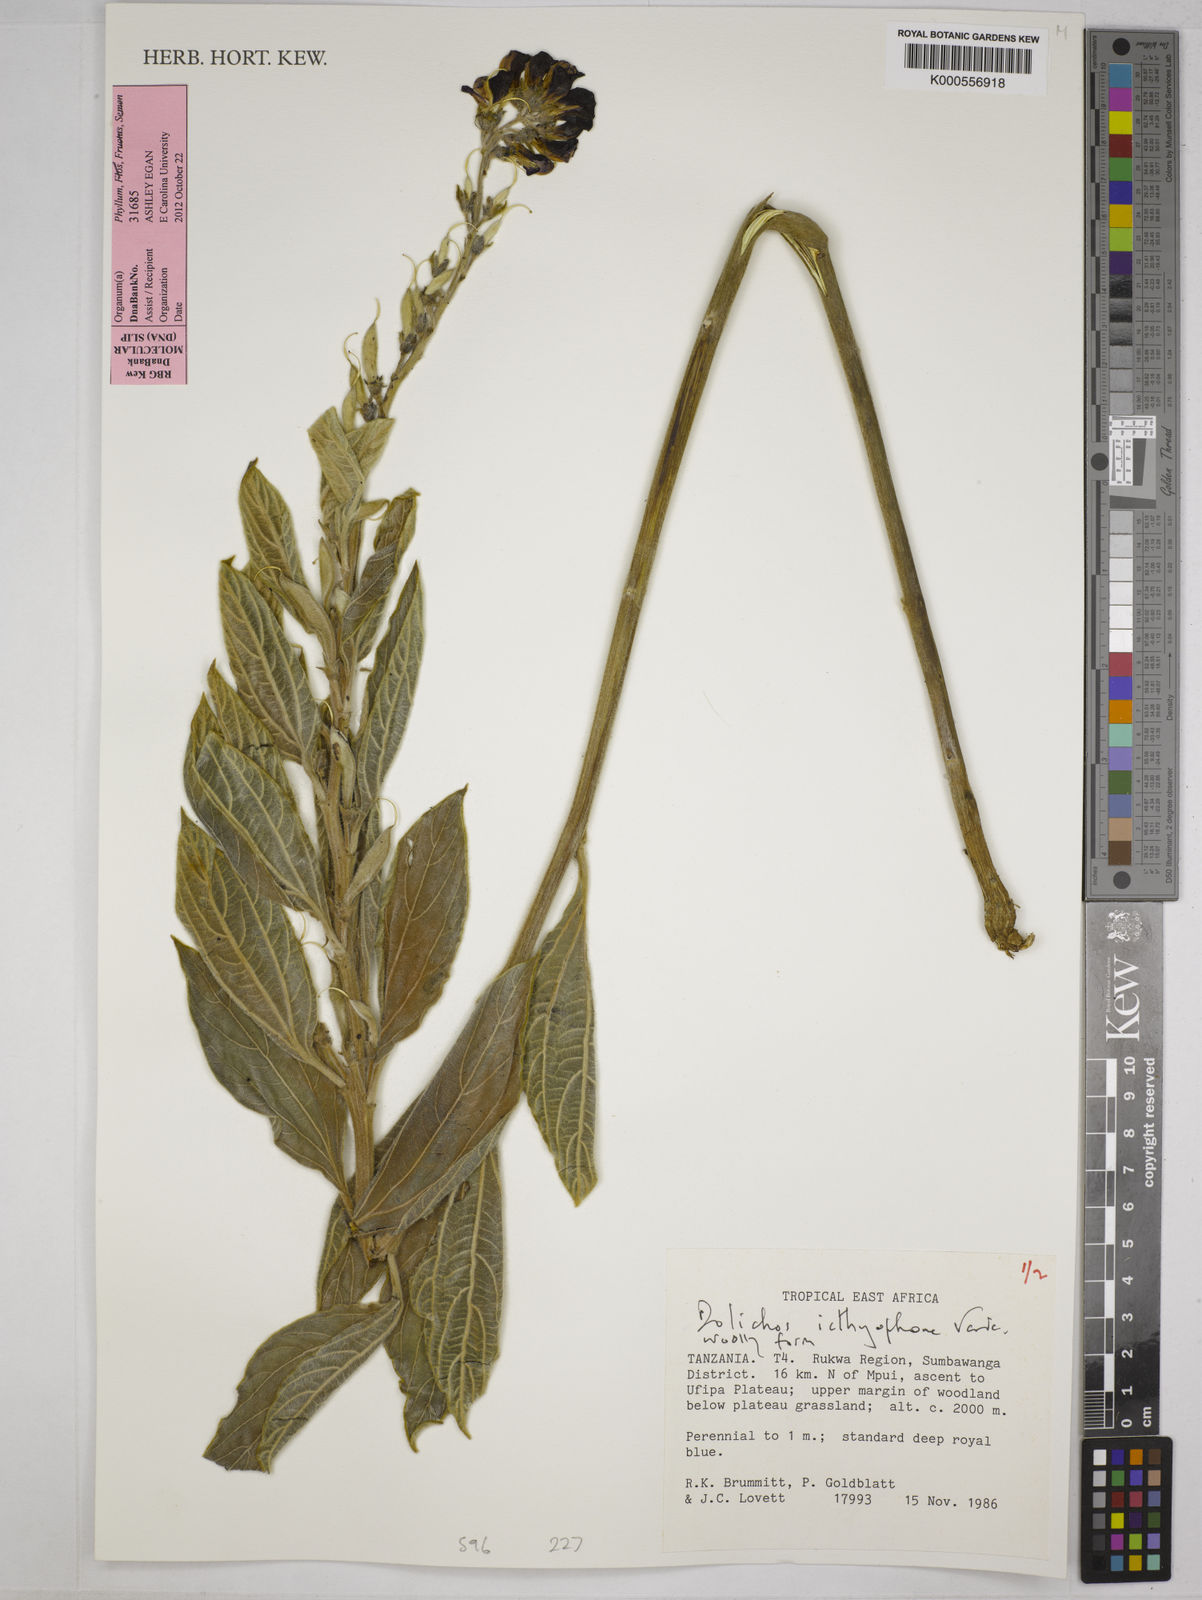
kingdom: Plantae
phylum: Tracheophyta
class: Magnoliopsida
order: Fabales
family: Fabaceae
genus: Dolichos
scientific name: Dolichos ichthyophone
